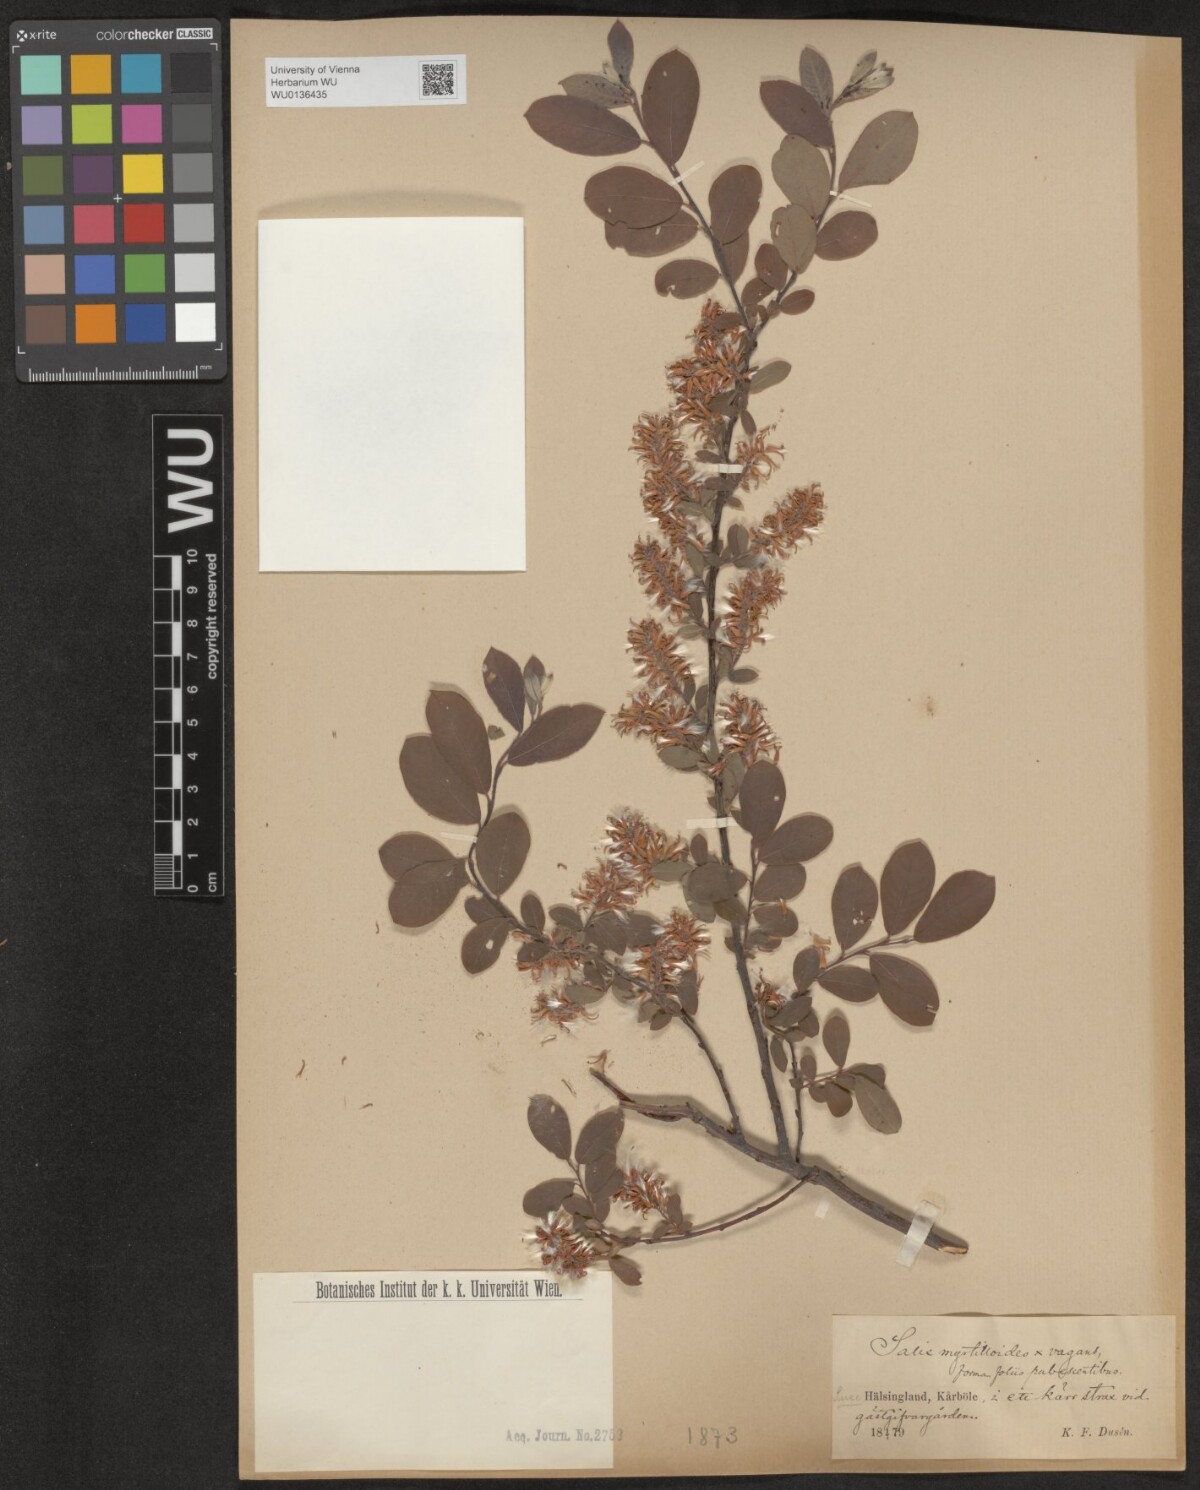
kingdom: Plantae
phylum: Tracheophyta
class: Magnoliopsida
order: Malpighiales
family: Salicaceae
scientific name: Salicaceae
